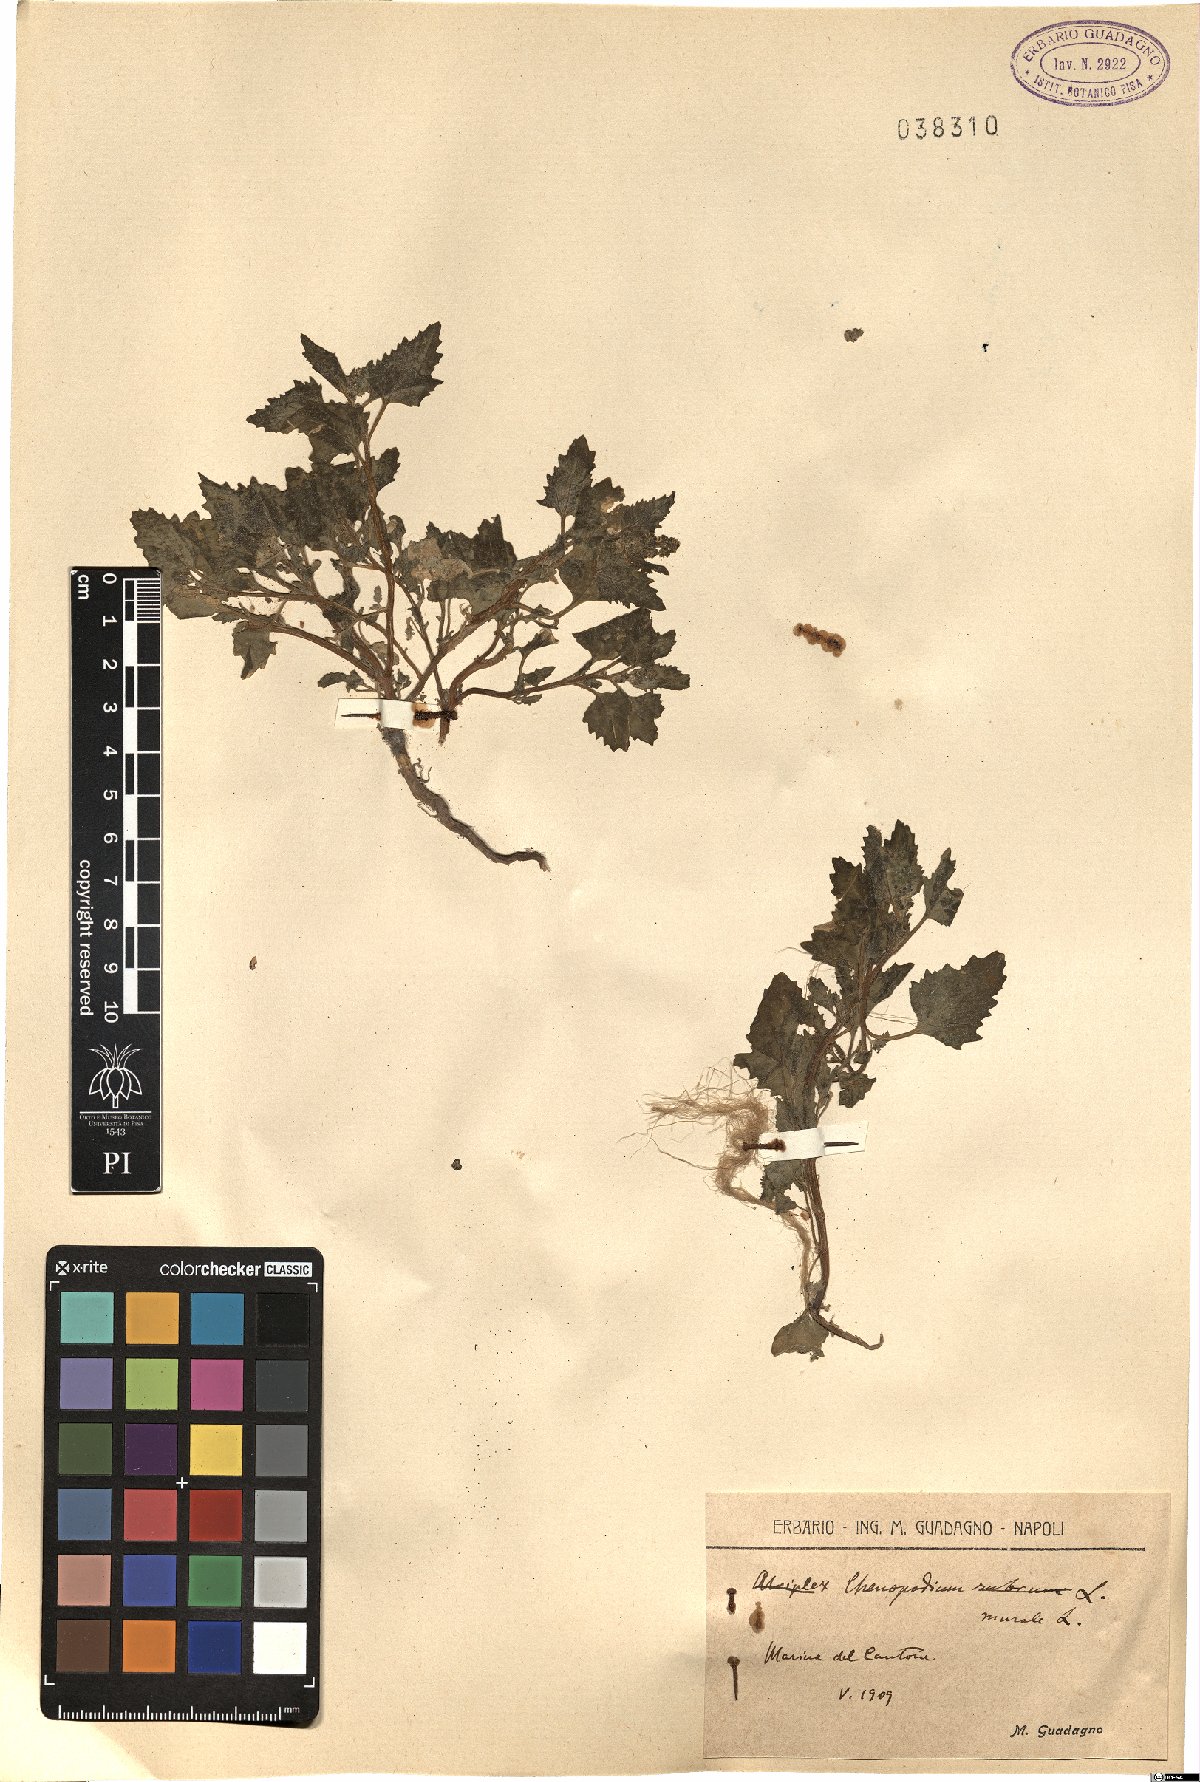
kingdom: Plantae
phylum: Tracheophyta
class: Magnoliopsida
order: Caryophyllales
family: Amaranthaceae
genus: Chenopodiastrum
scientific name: Chenopodiastrum murale
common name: Sowbane
